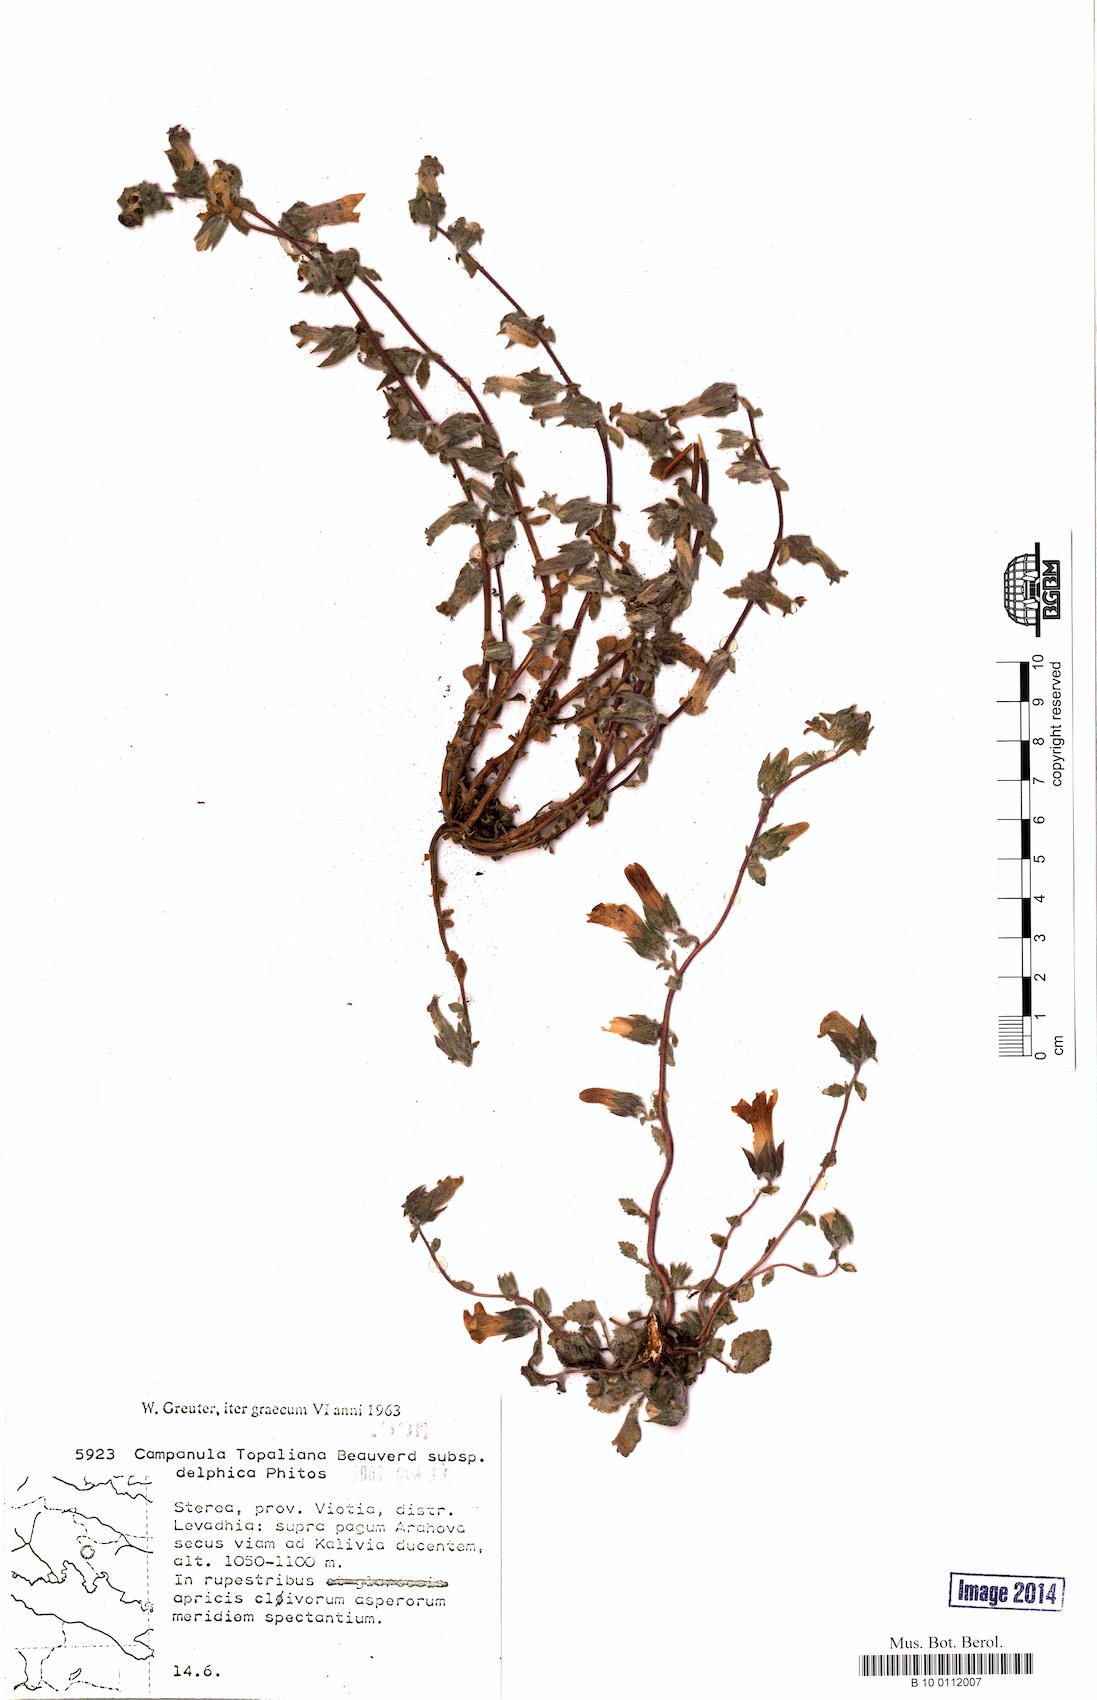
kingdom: Plantae
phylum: Tracheophyta
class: Magnoliopsida
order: Asterales
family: Campanulaceae
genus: Campanula
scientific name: Campanula topaliana
